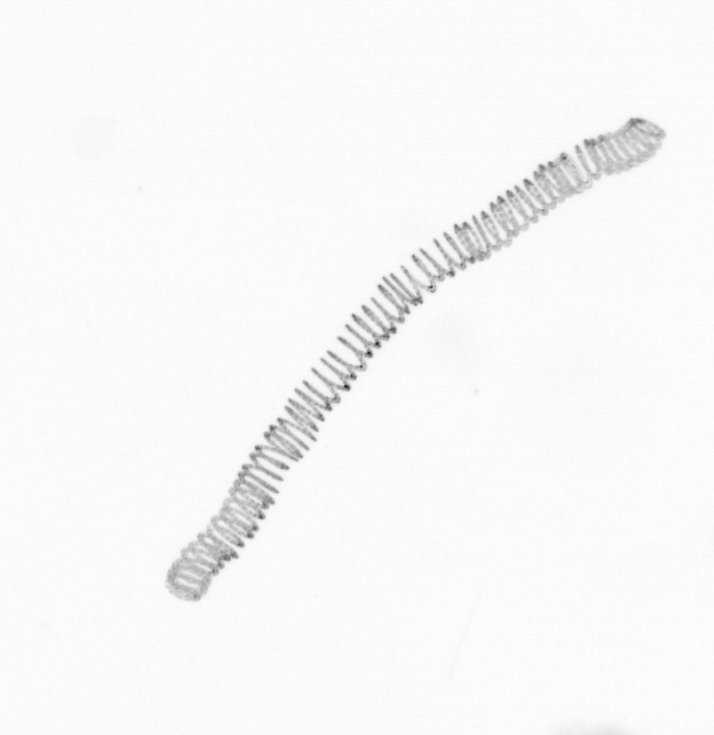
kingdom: Chromista
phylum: Ochrophyta
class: Bacillariophyceae
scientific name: Bacillariophyceae
